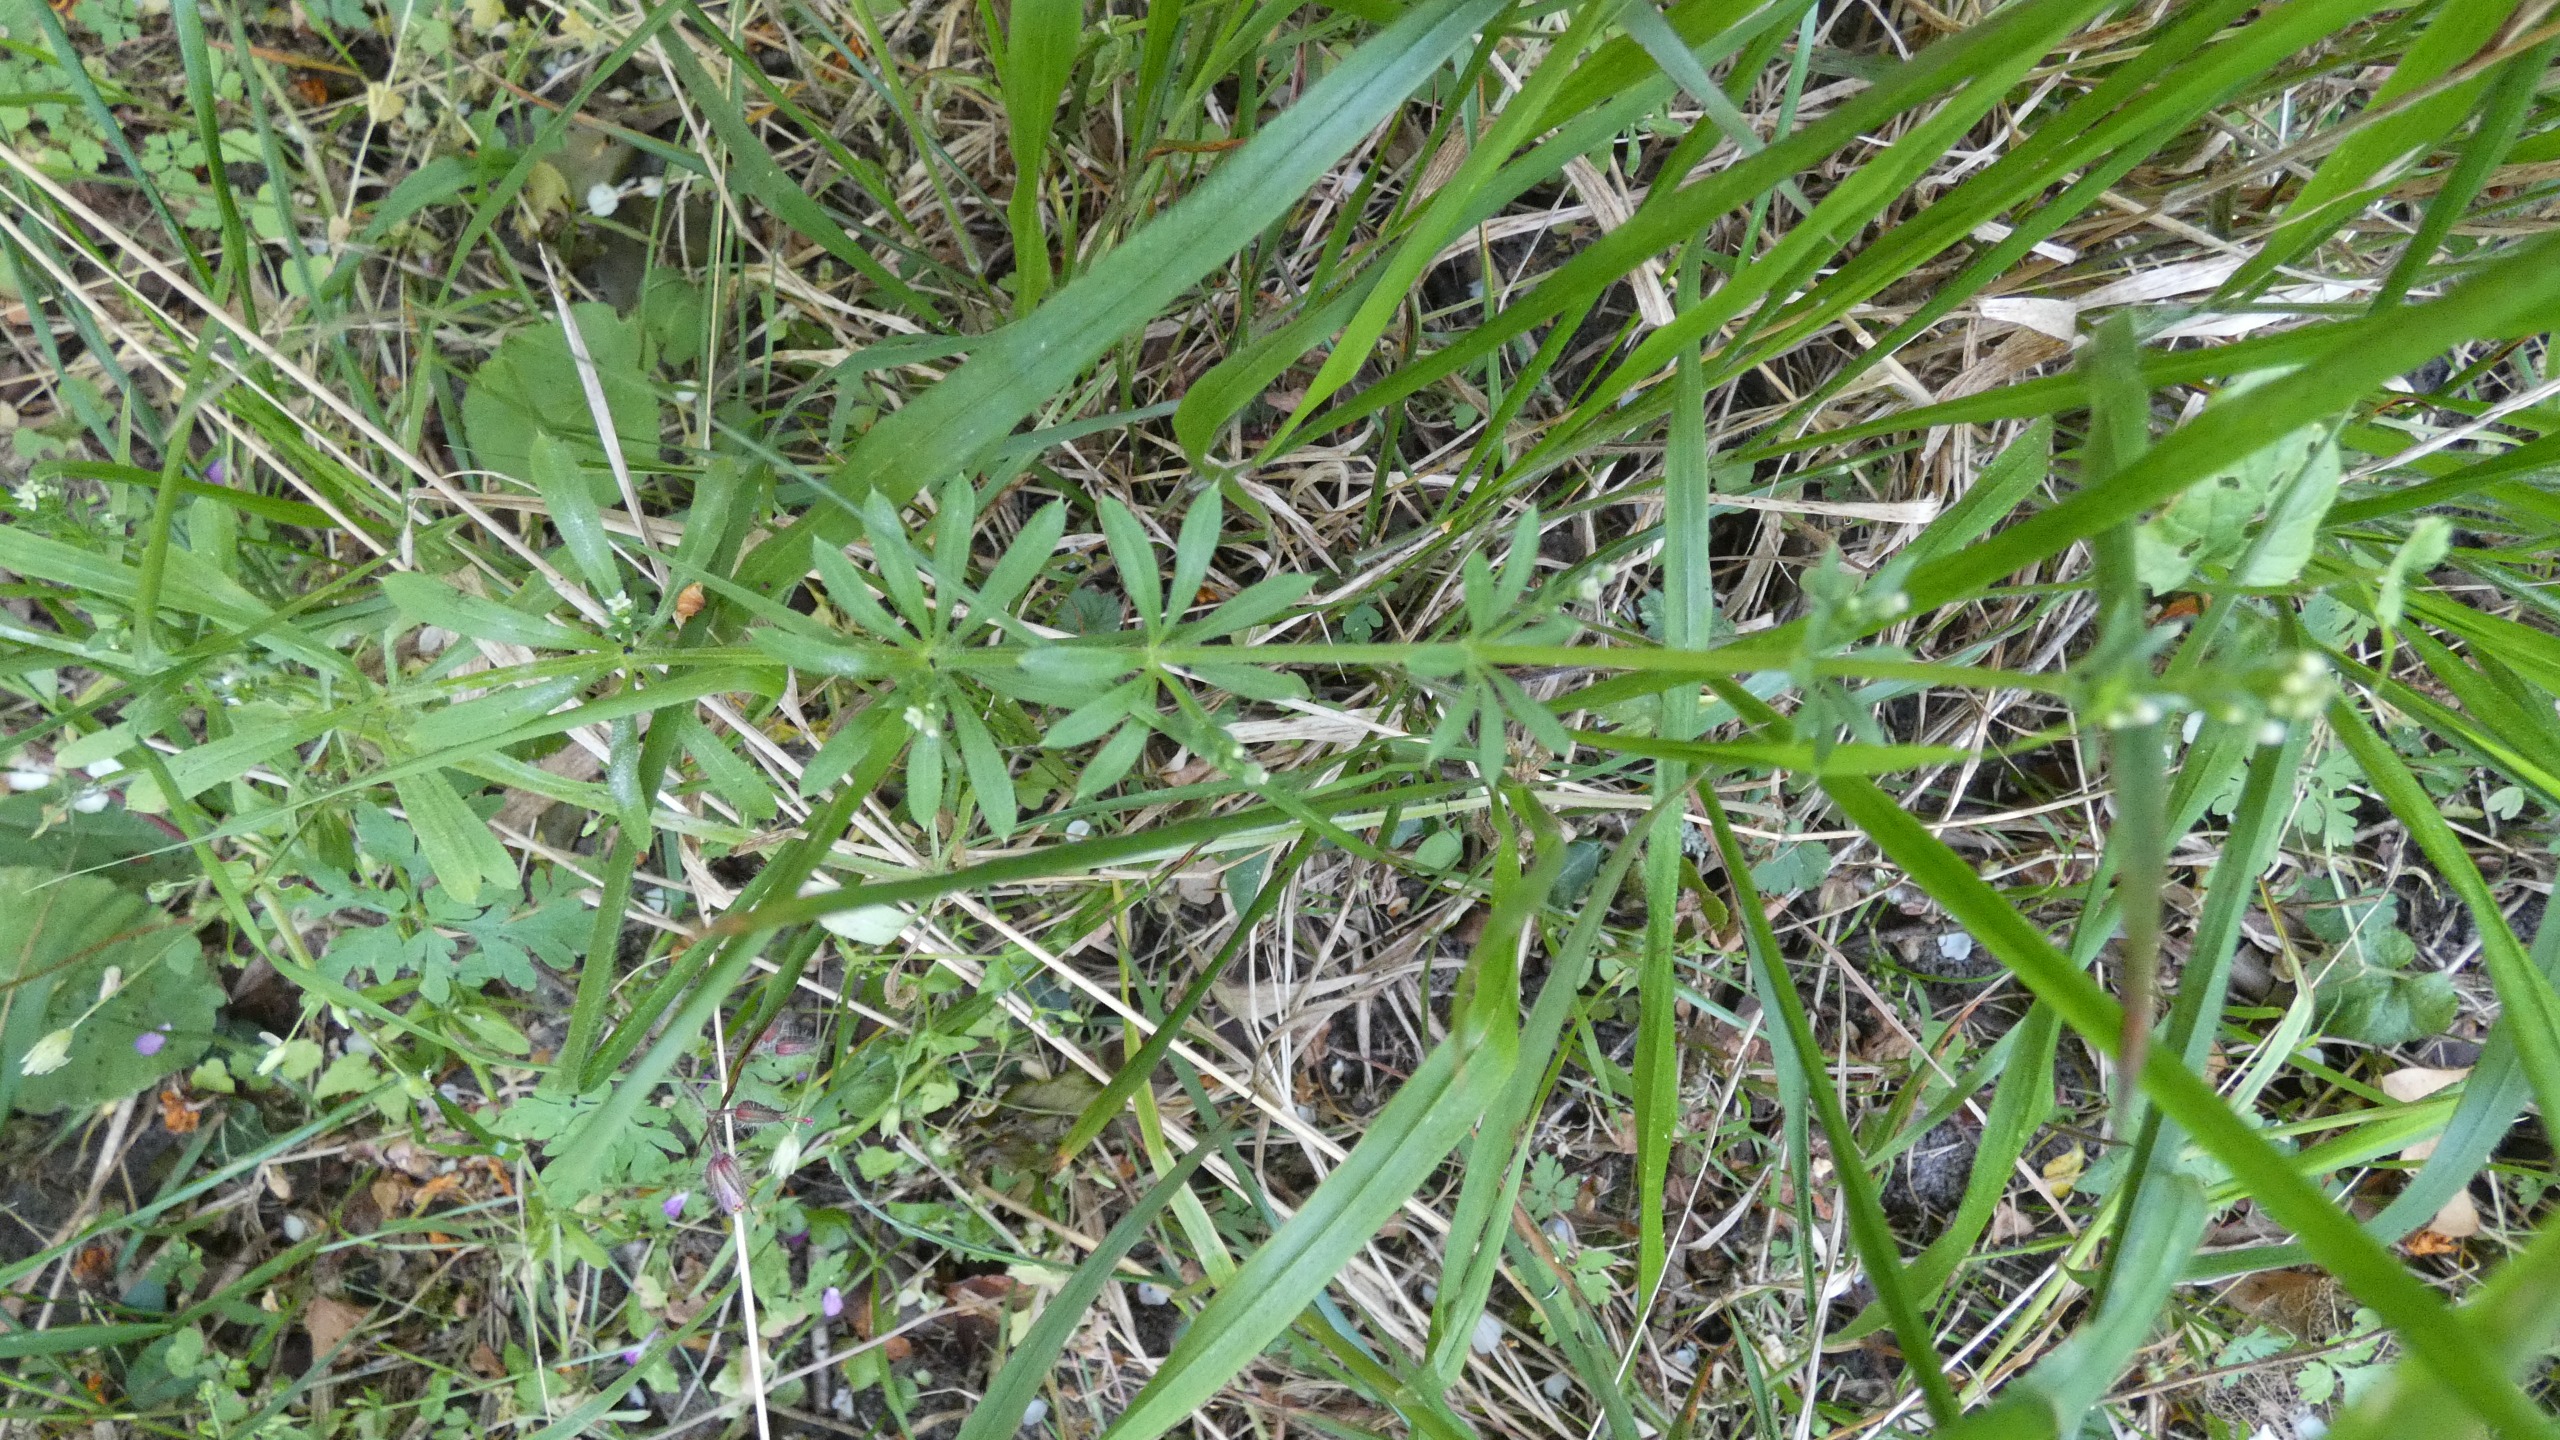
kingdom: Plantae
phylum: Tracheophyta
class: Magnoliopsida
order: Gentianales
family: Rubiaceae
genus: Galium
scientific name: Galium aparine
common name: Burre-snerre
